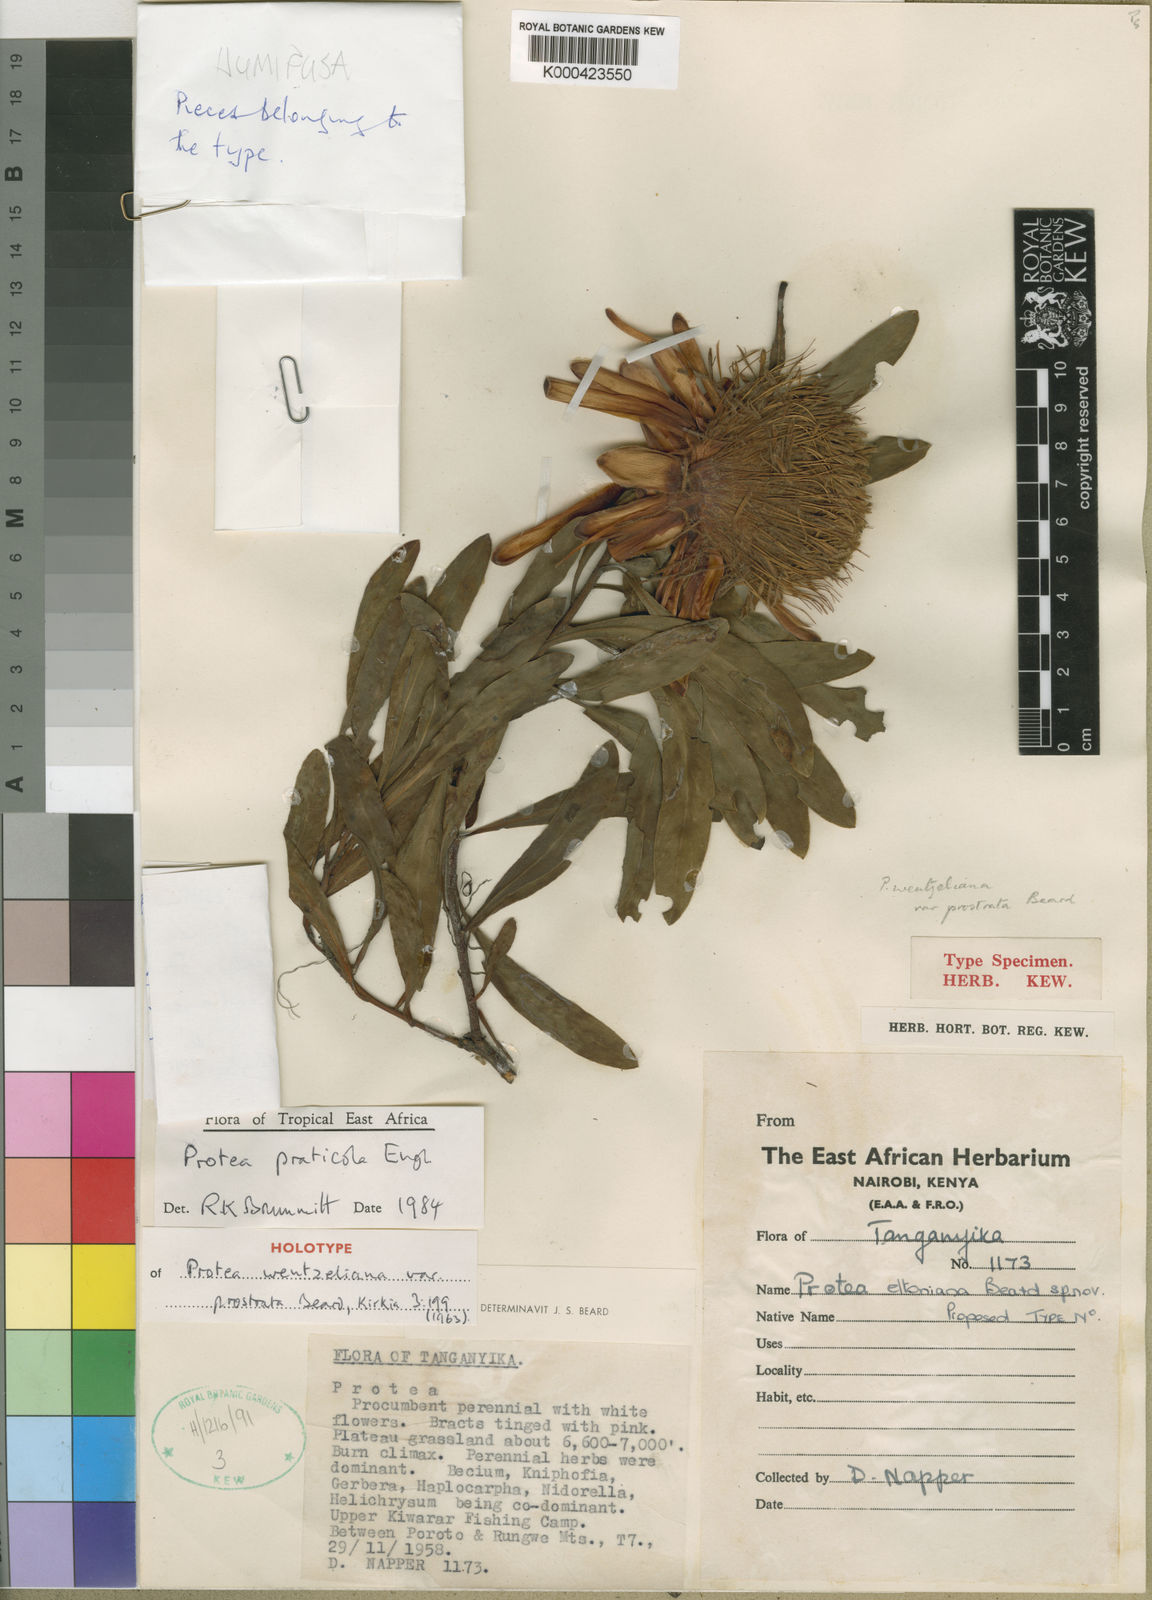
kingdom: Plantae
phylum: Tracheophyta
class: Magnoliopsida
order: Proteales
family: Proteaceae
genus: Protea
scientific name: Protea humifusa
